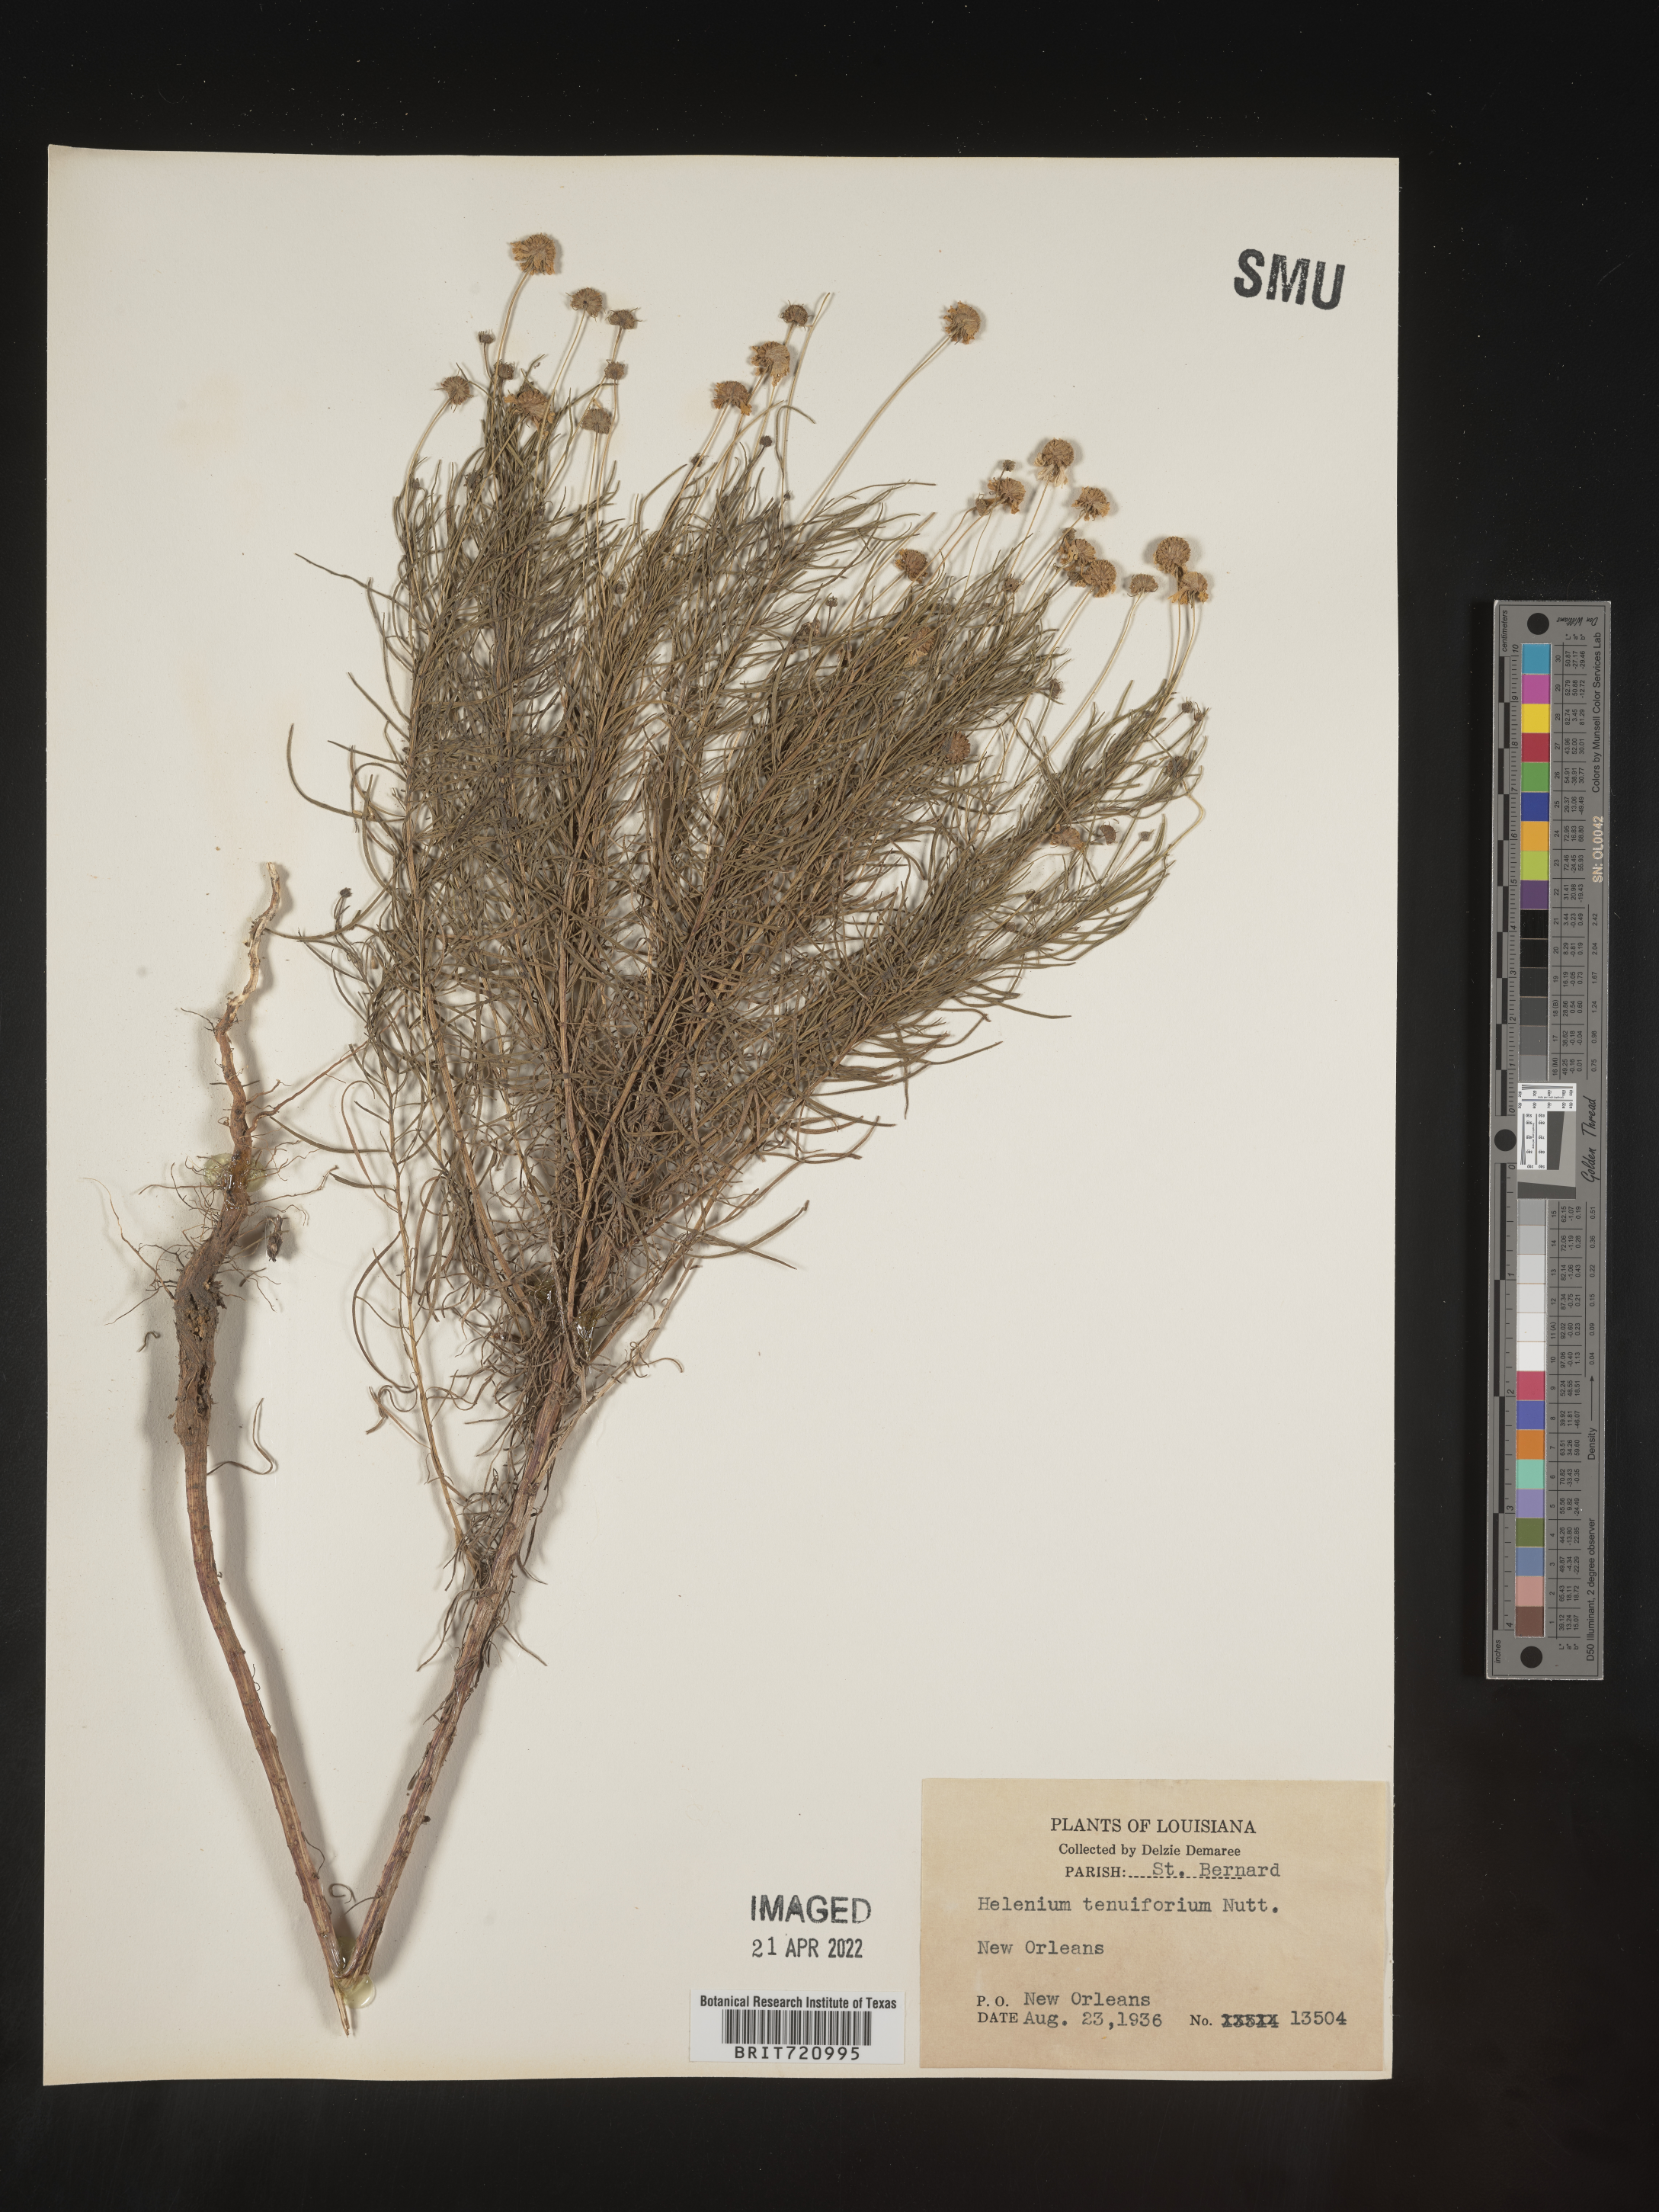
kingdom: Plantae
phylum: Tracheophyta
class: Magnoliopsida
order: Asterales
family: Asteraceae
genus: Helenium
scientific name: Helenium amarum
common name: Bitter sneezeweed
